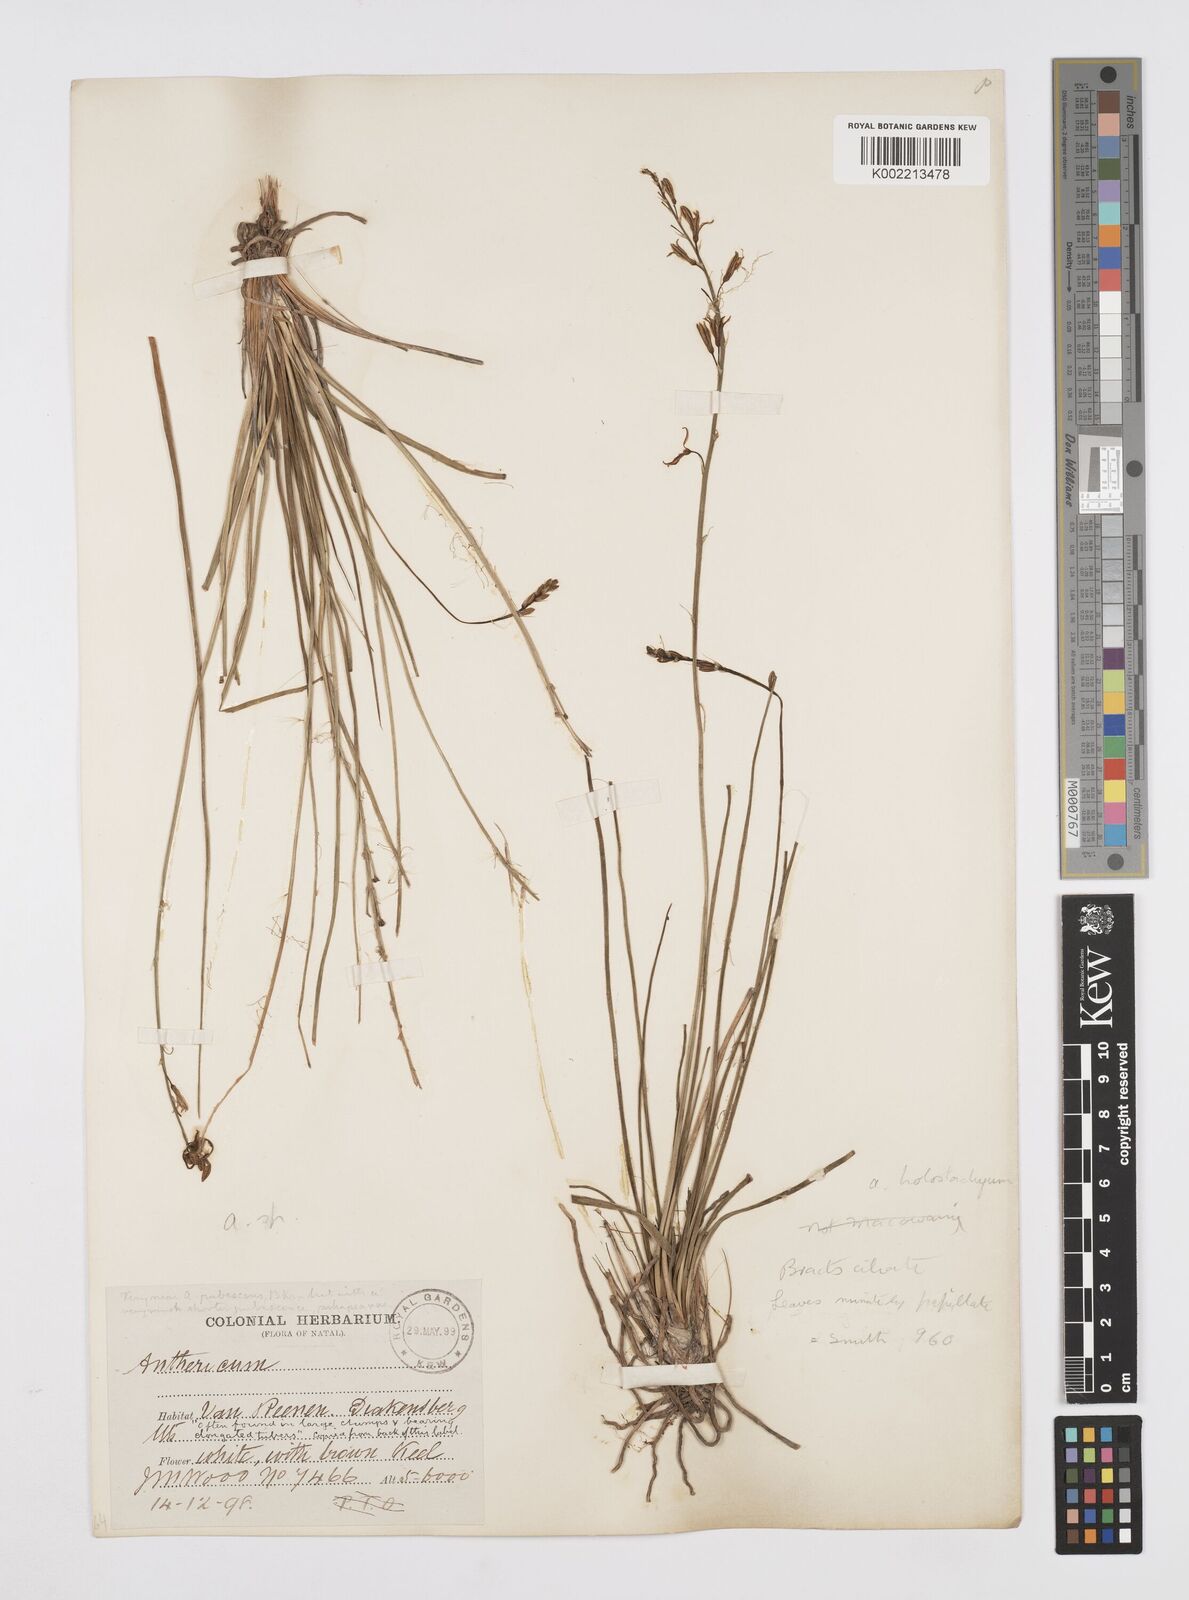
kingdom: Plantae
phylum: Tracheophyta
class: Liliopsida
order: Asparagales
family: Asphodelaceae
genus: Trachyandra
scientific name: Trachyandra saltii
